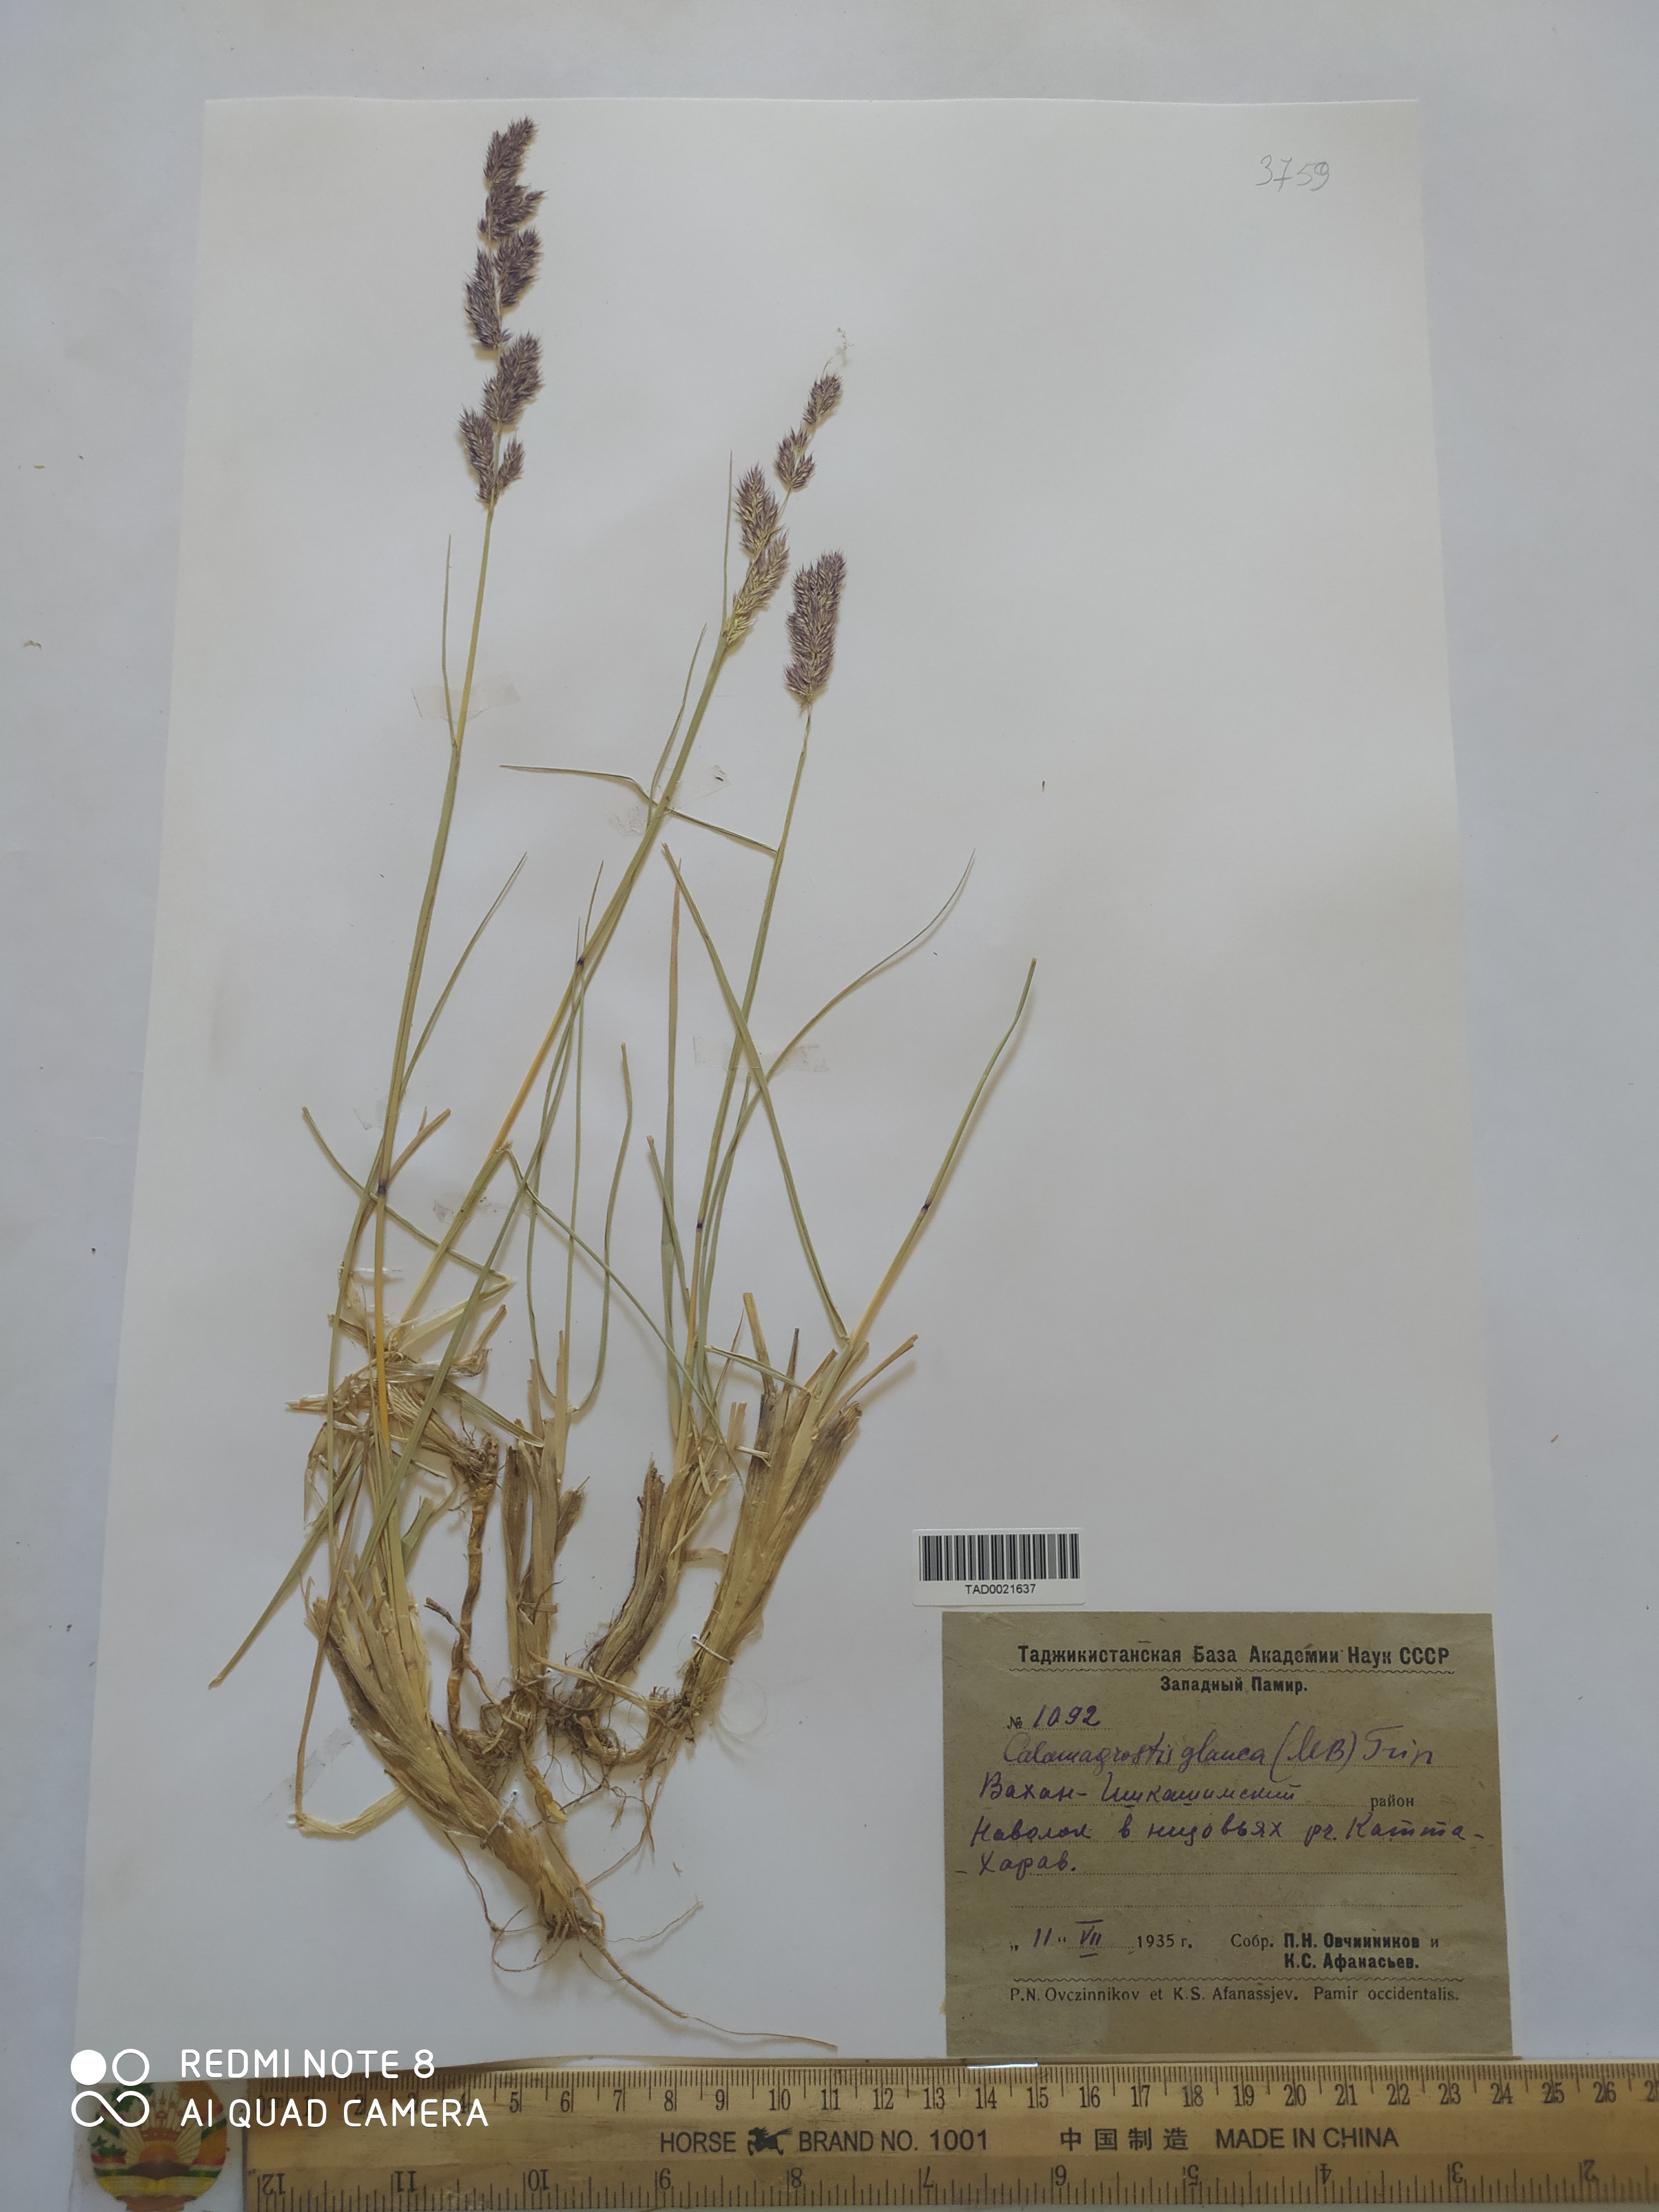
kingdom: Plantae
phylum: Tracheophyta
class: Liliopsida
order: Poales
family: Poaceae
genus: Calamagrostis
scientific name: Calamagrostis pseudophragmites
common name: Coastal small-reed
